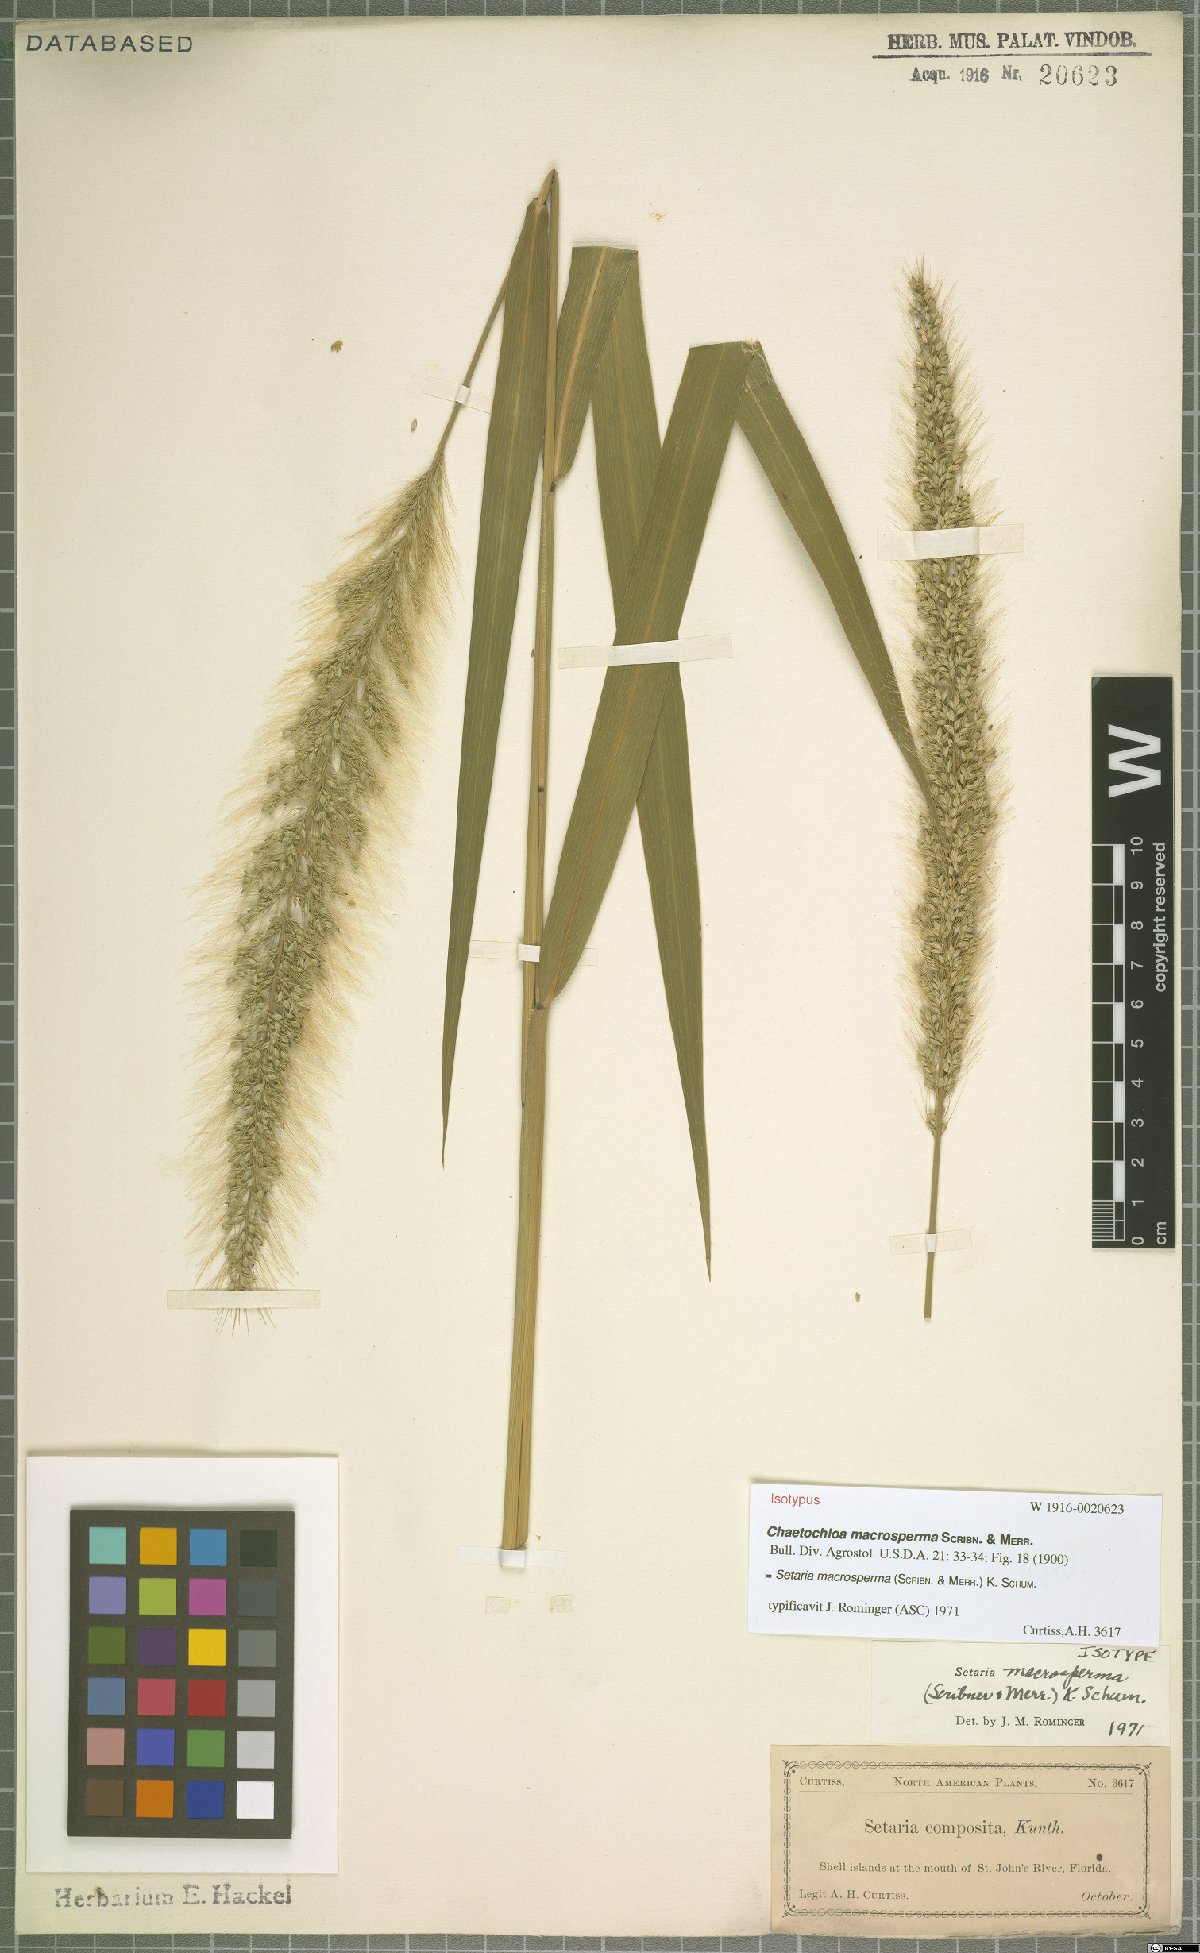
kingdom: Plantae
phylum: Tracheophyta
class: Liliopsida
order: Poales
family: Poaceae
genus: Setaria
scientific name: Setaria macrosperma
